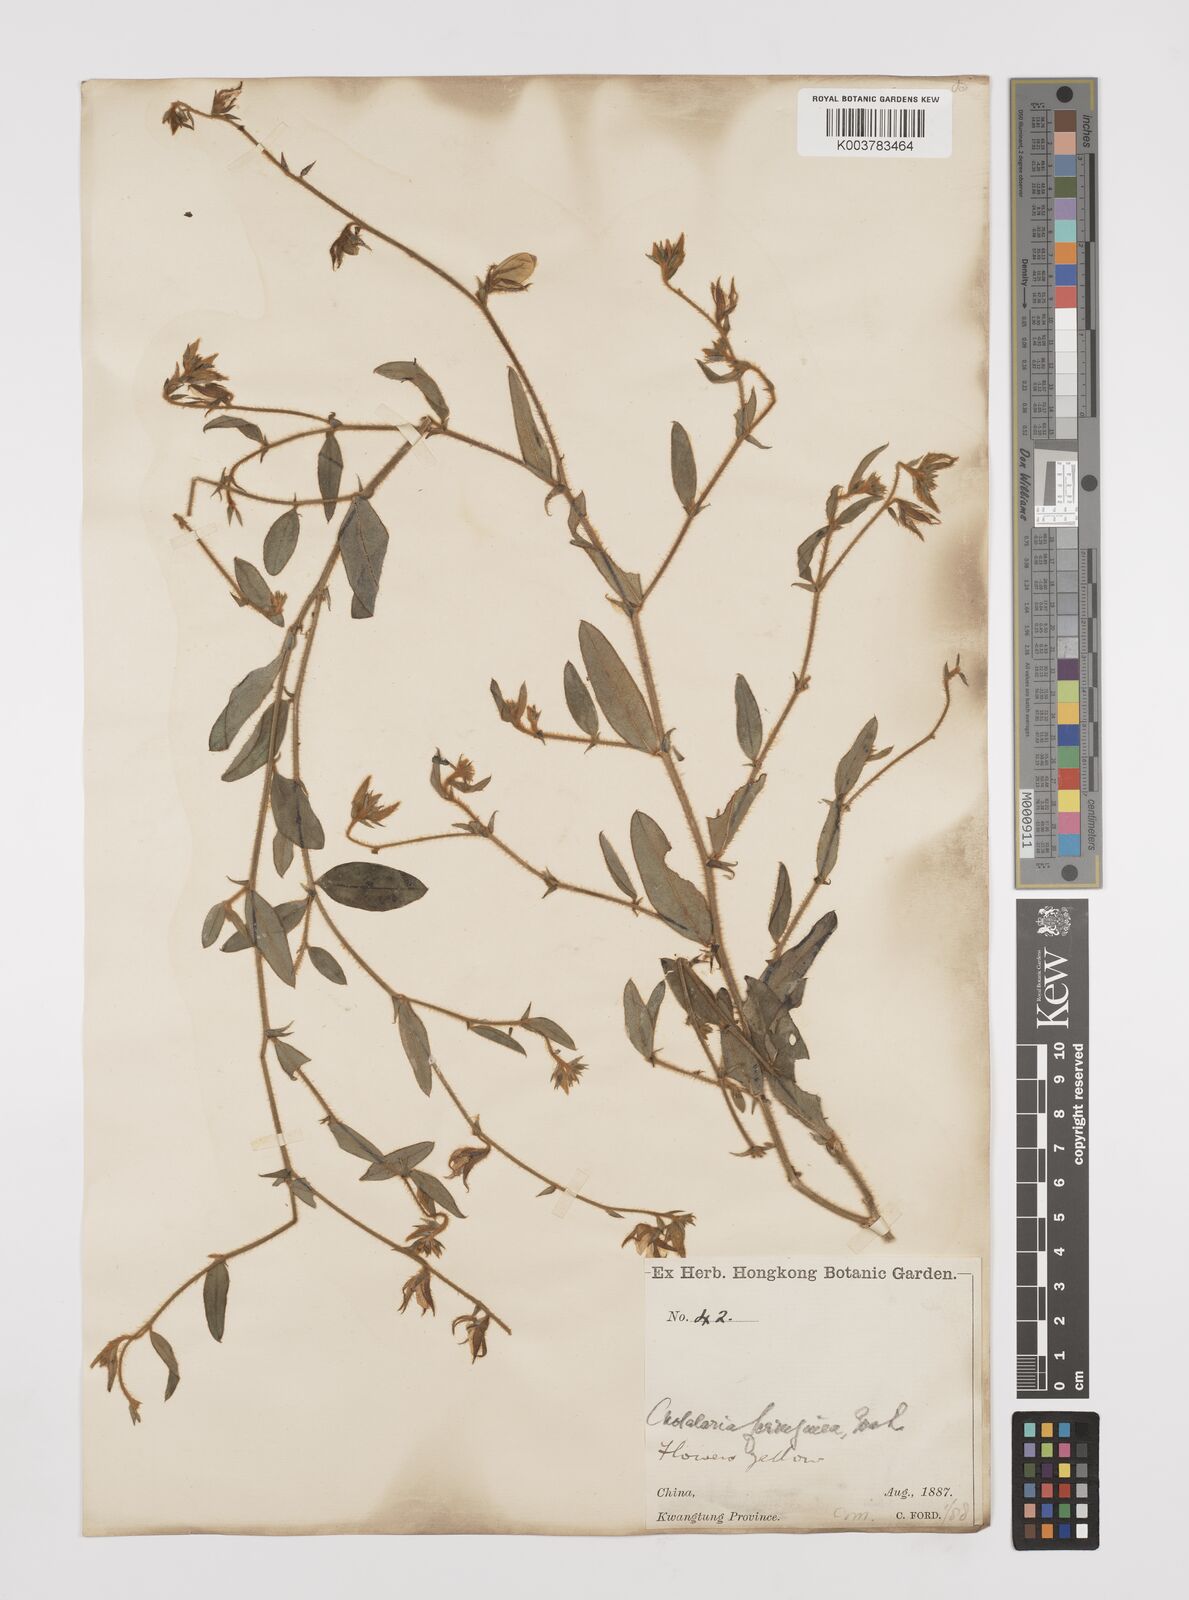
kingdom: Plantae
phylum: Tracheophyta
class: Magnoliopsida
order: Fabales
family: Fabaceae
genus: Crotalaria
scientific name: Crotalaria lejoloba
